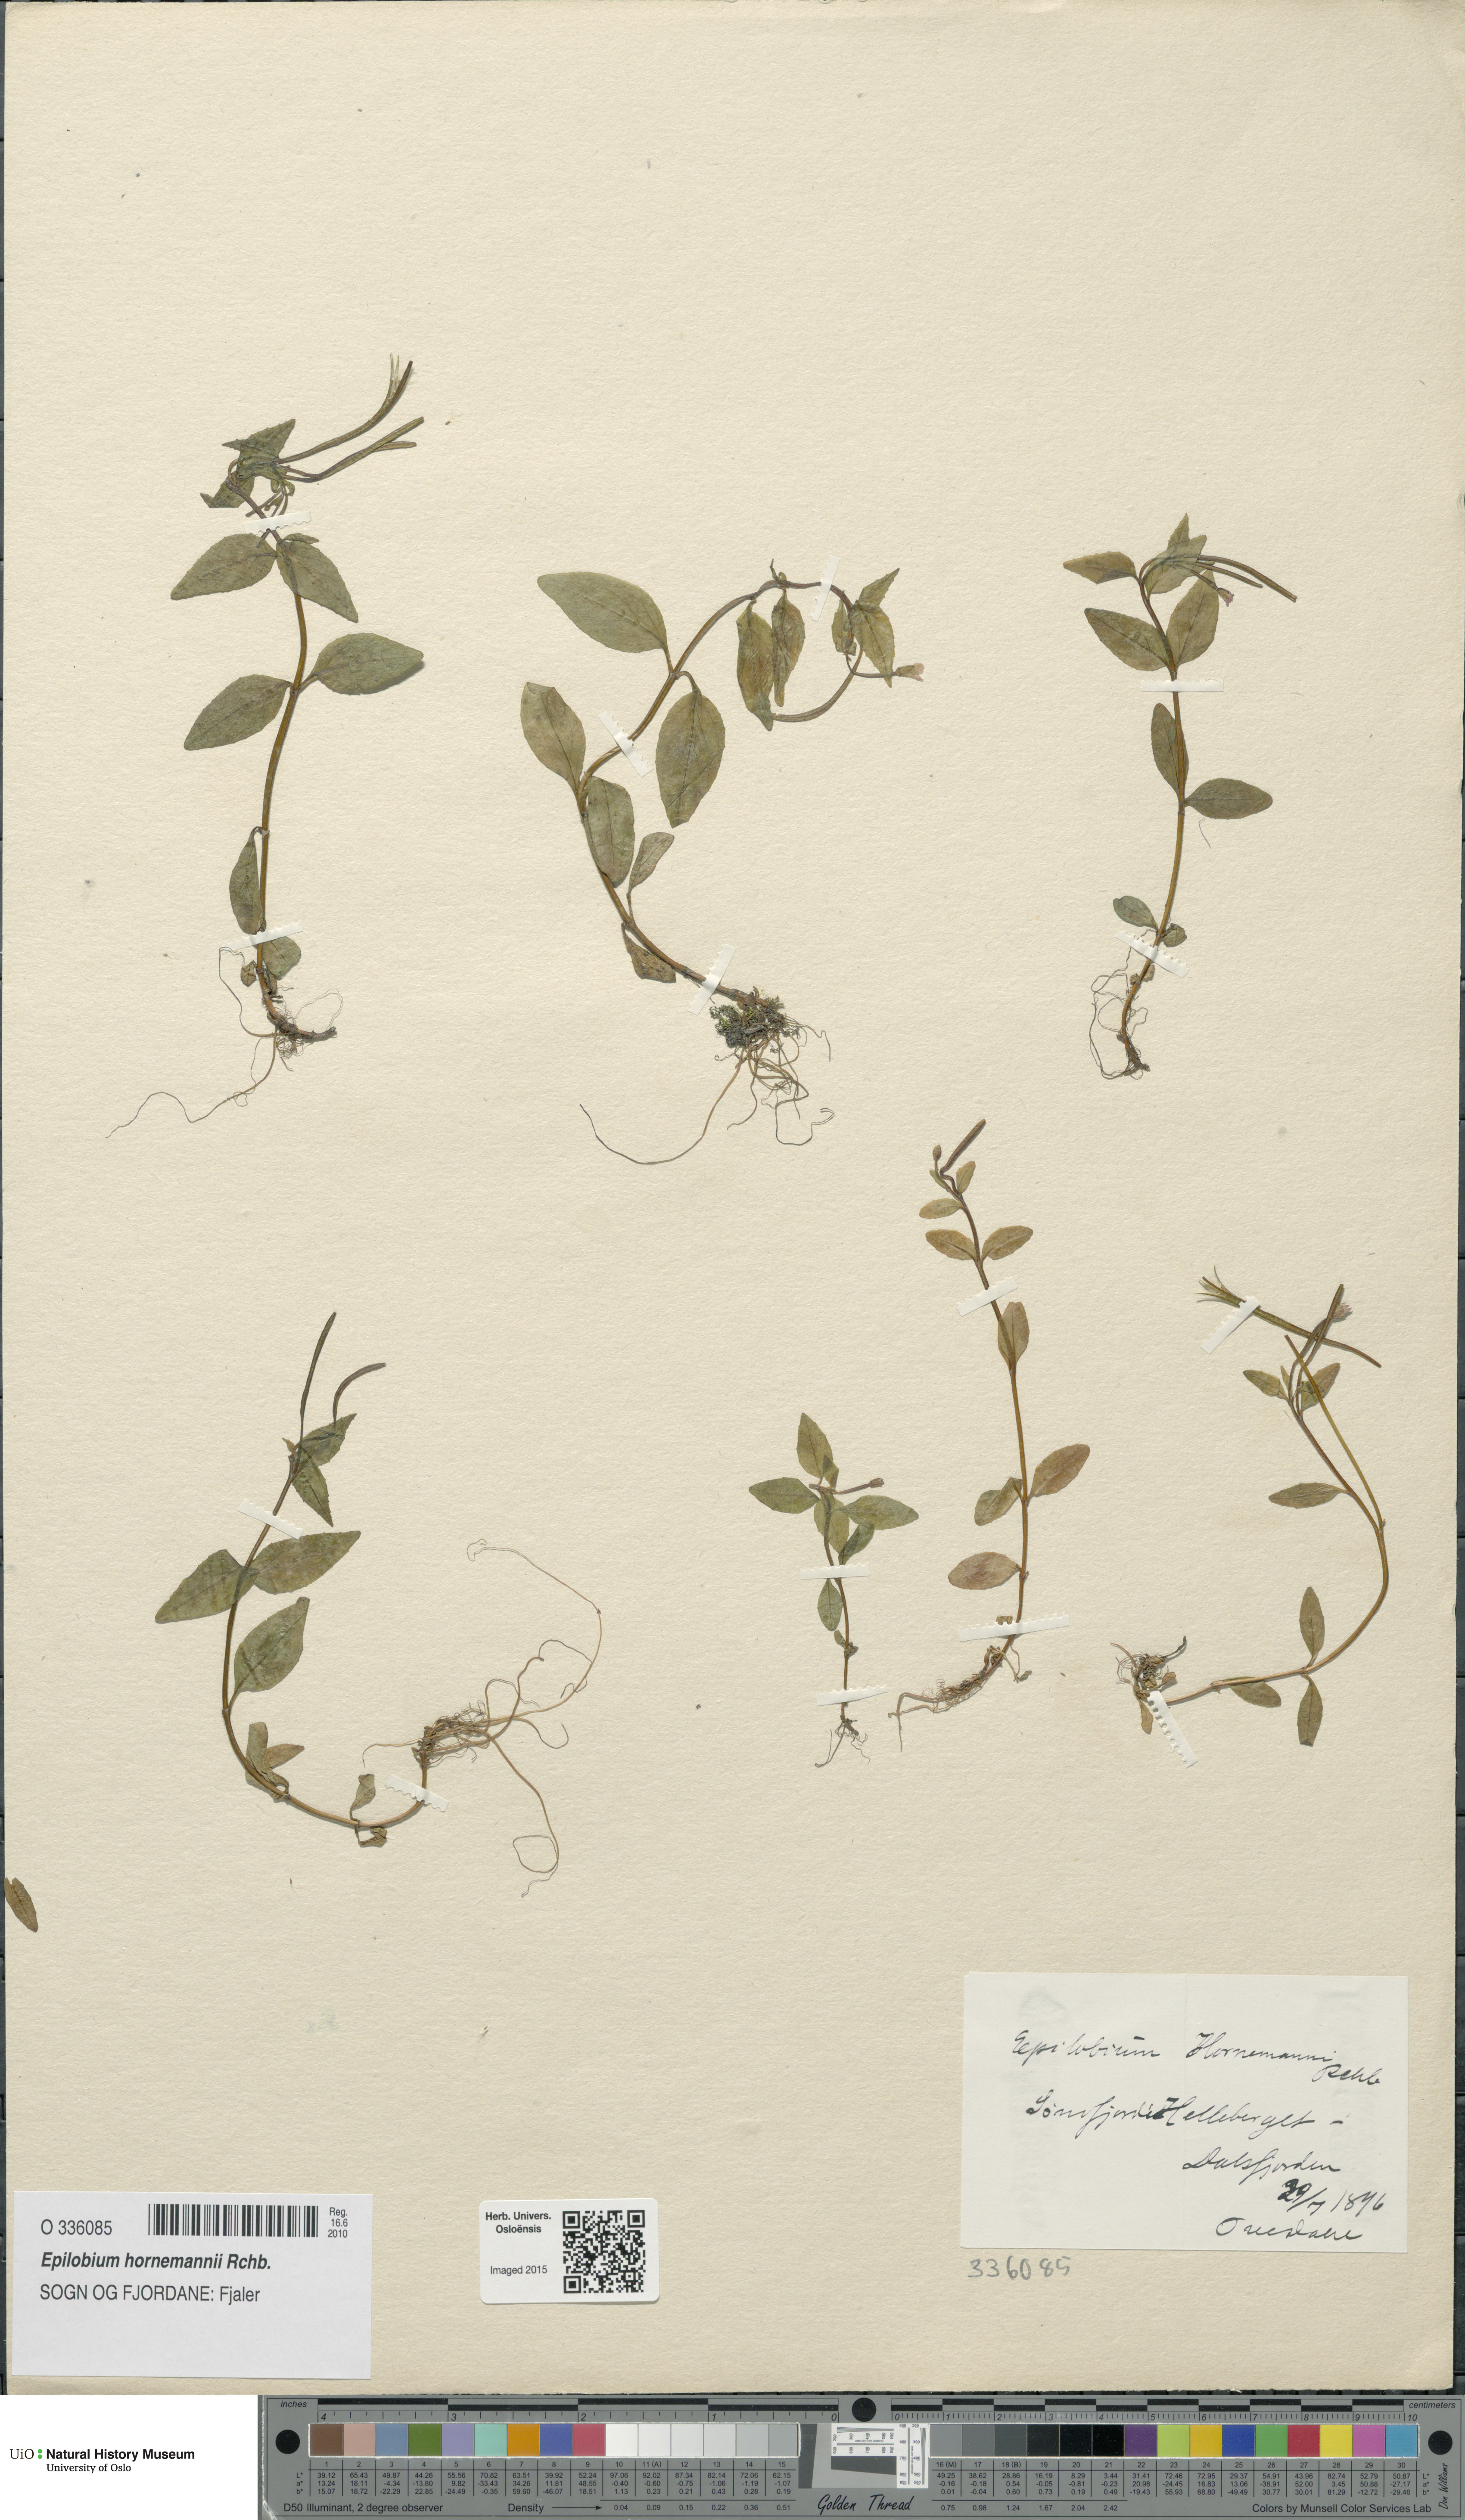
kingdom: Plantae
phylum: Tracheophyta
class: Magnoliopsida
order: Myrtales
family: Onagraceae
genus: Epilobium
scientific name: Epilobium hornemannii
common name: Hornemann's willowherb
